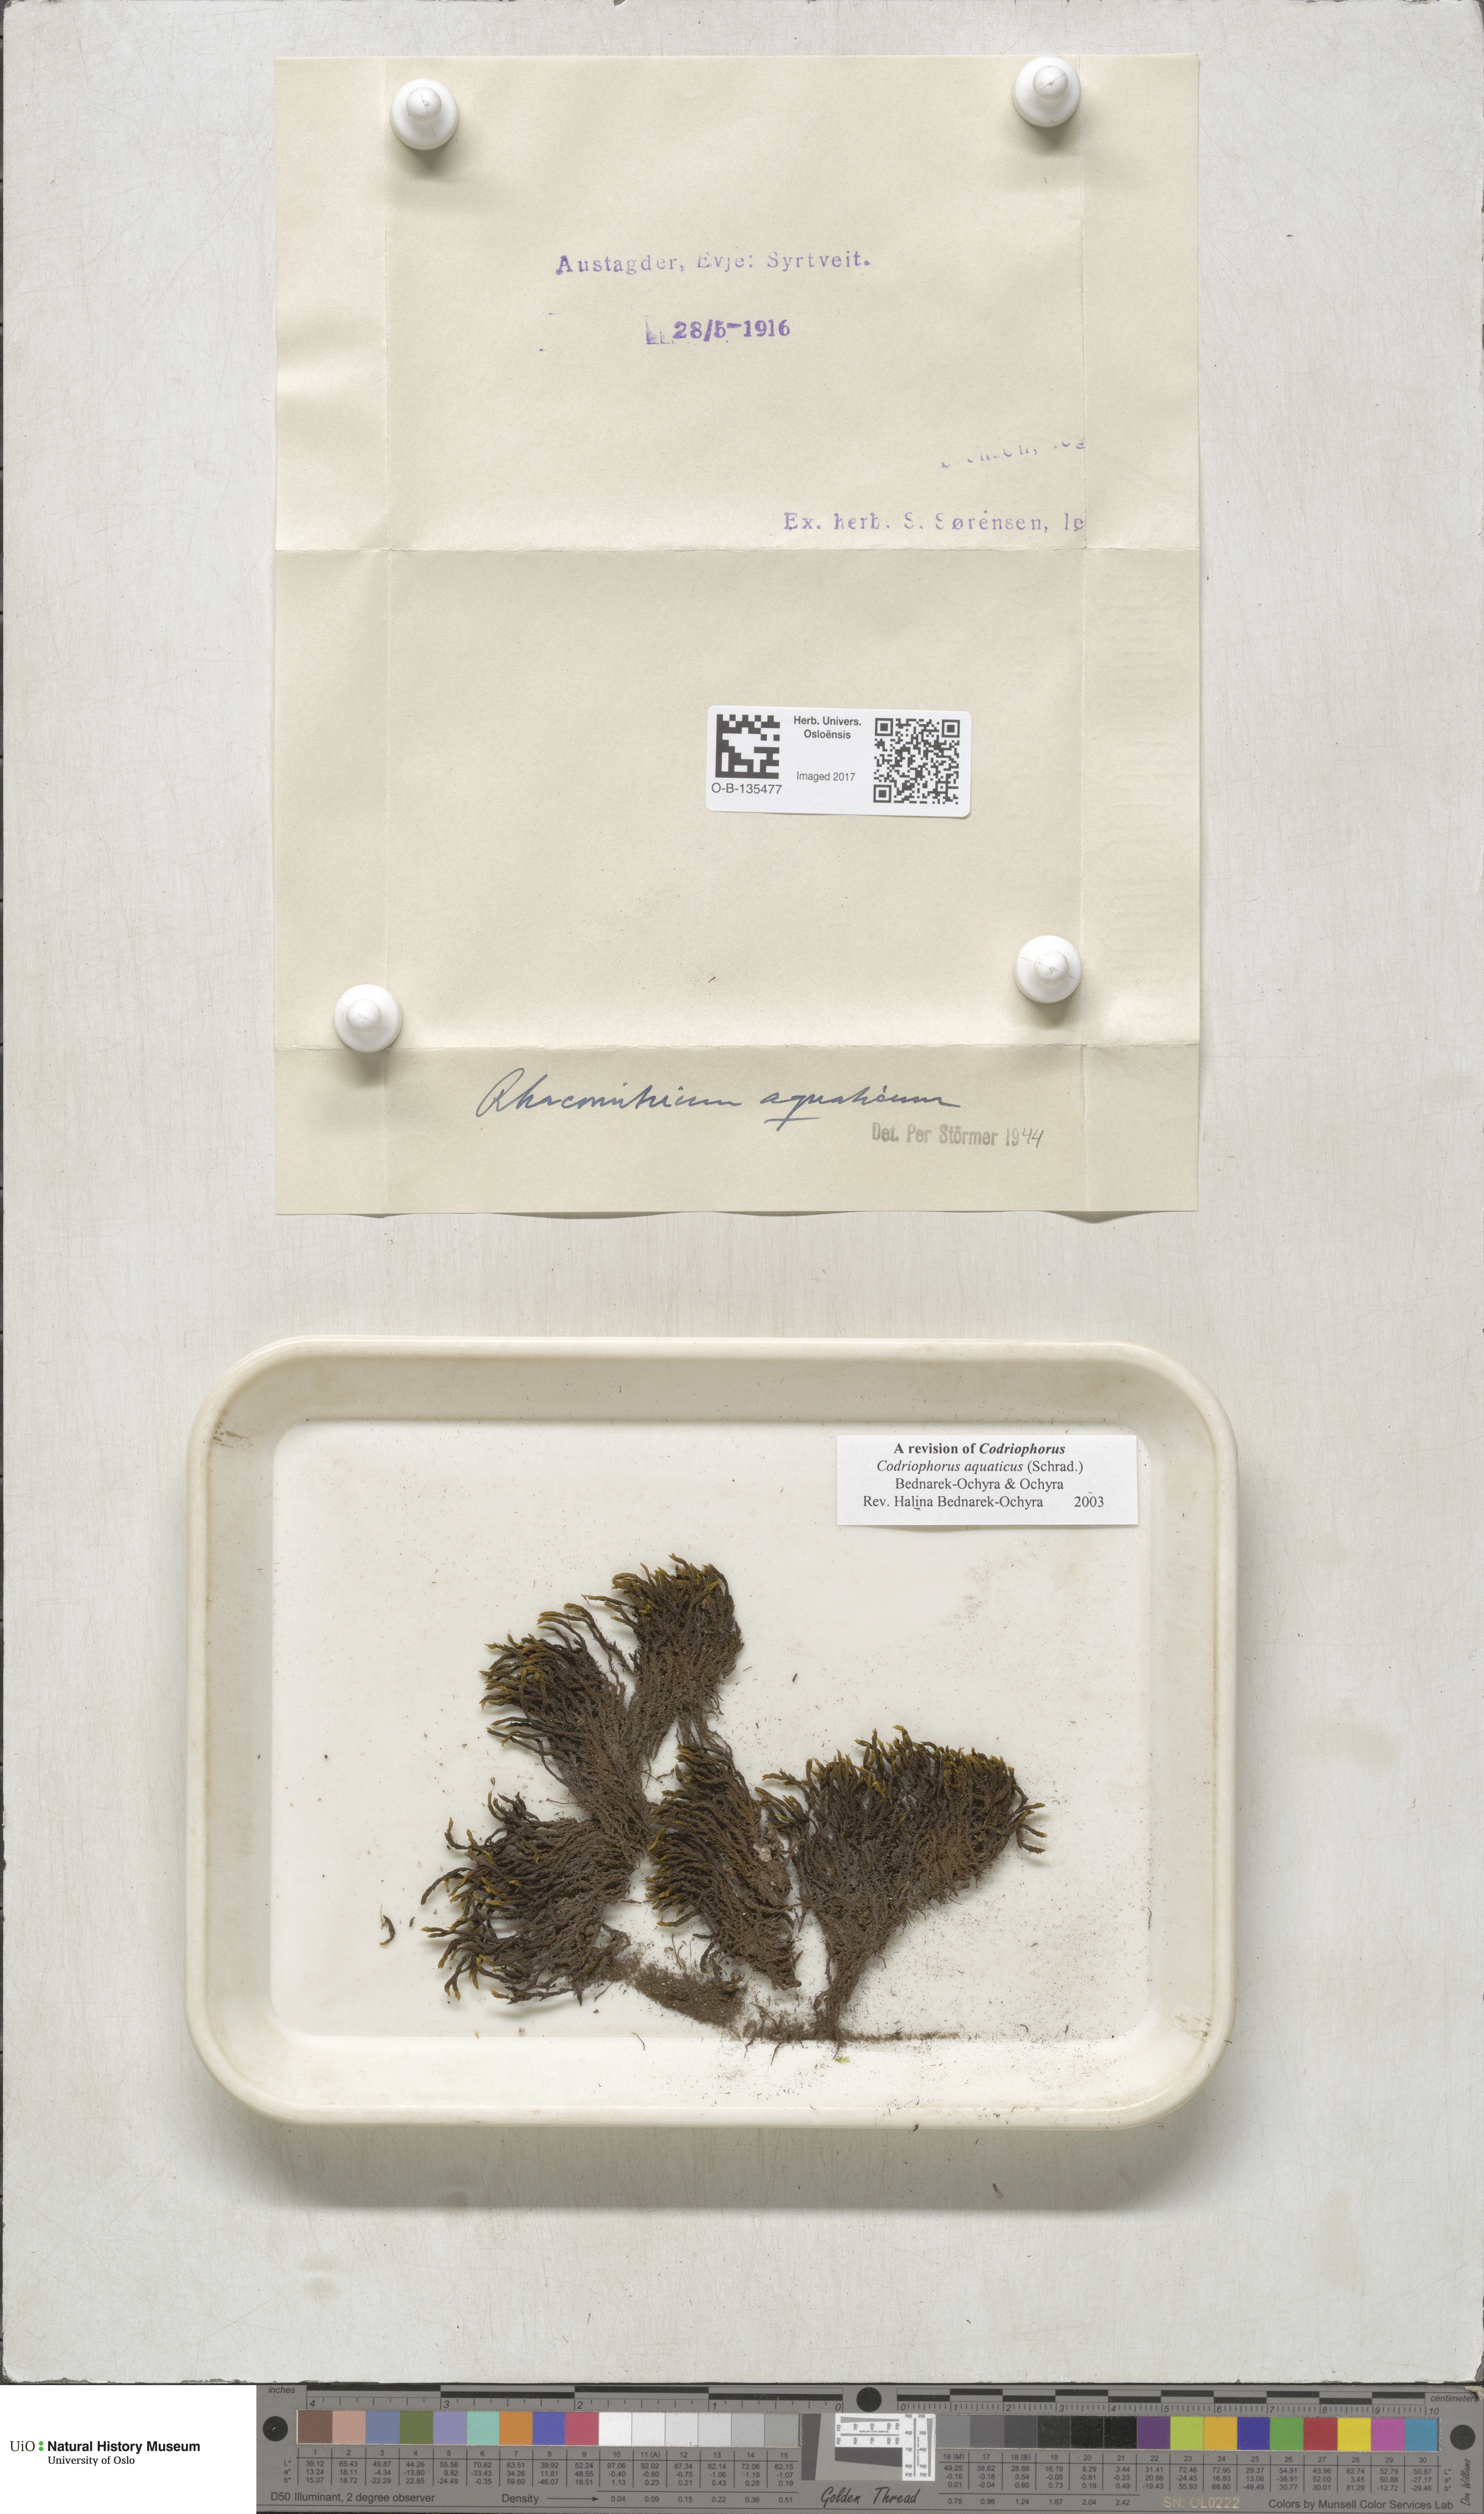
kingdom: Plantae
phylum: Bryophyta
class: Bryopsida
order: Grimmiales
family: Grimmiaceae
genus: Codriophorus
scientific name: Codriophorus aquaticus
